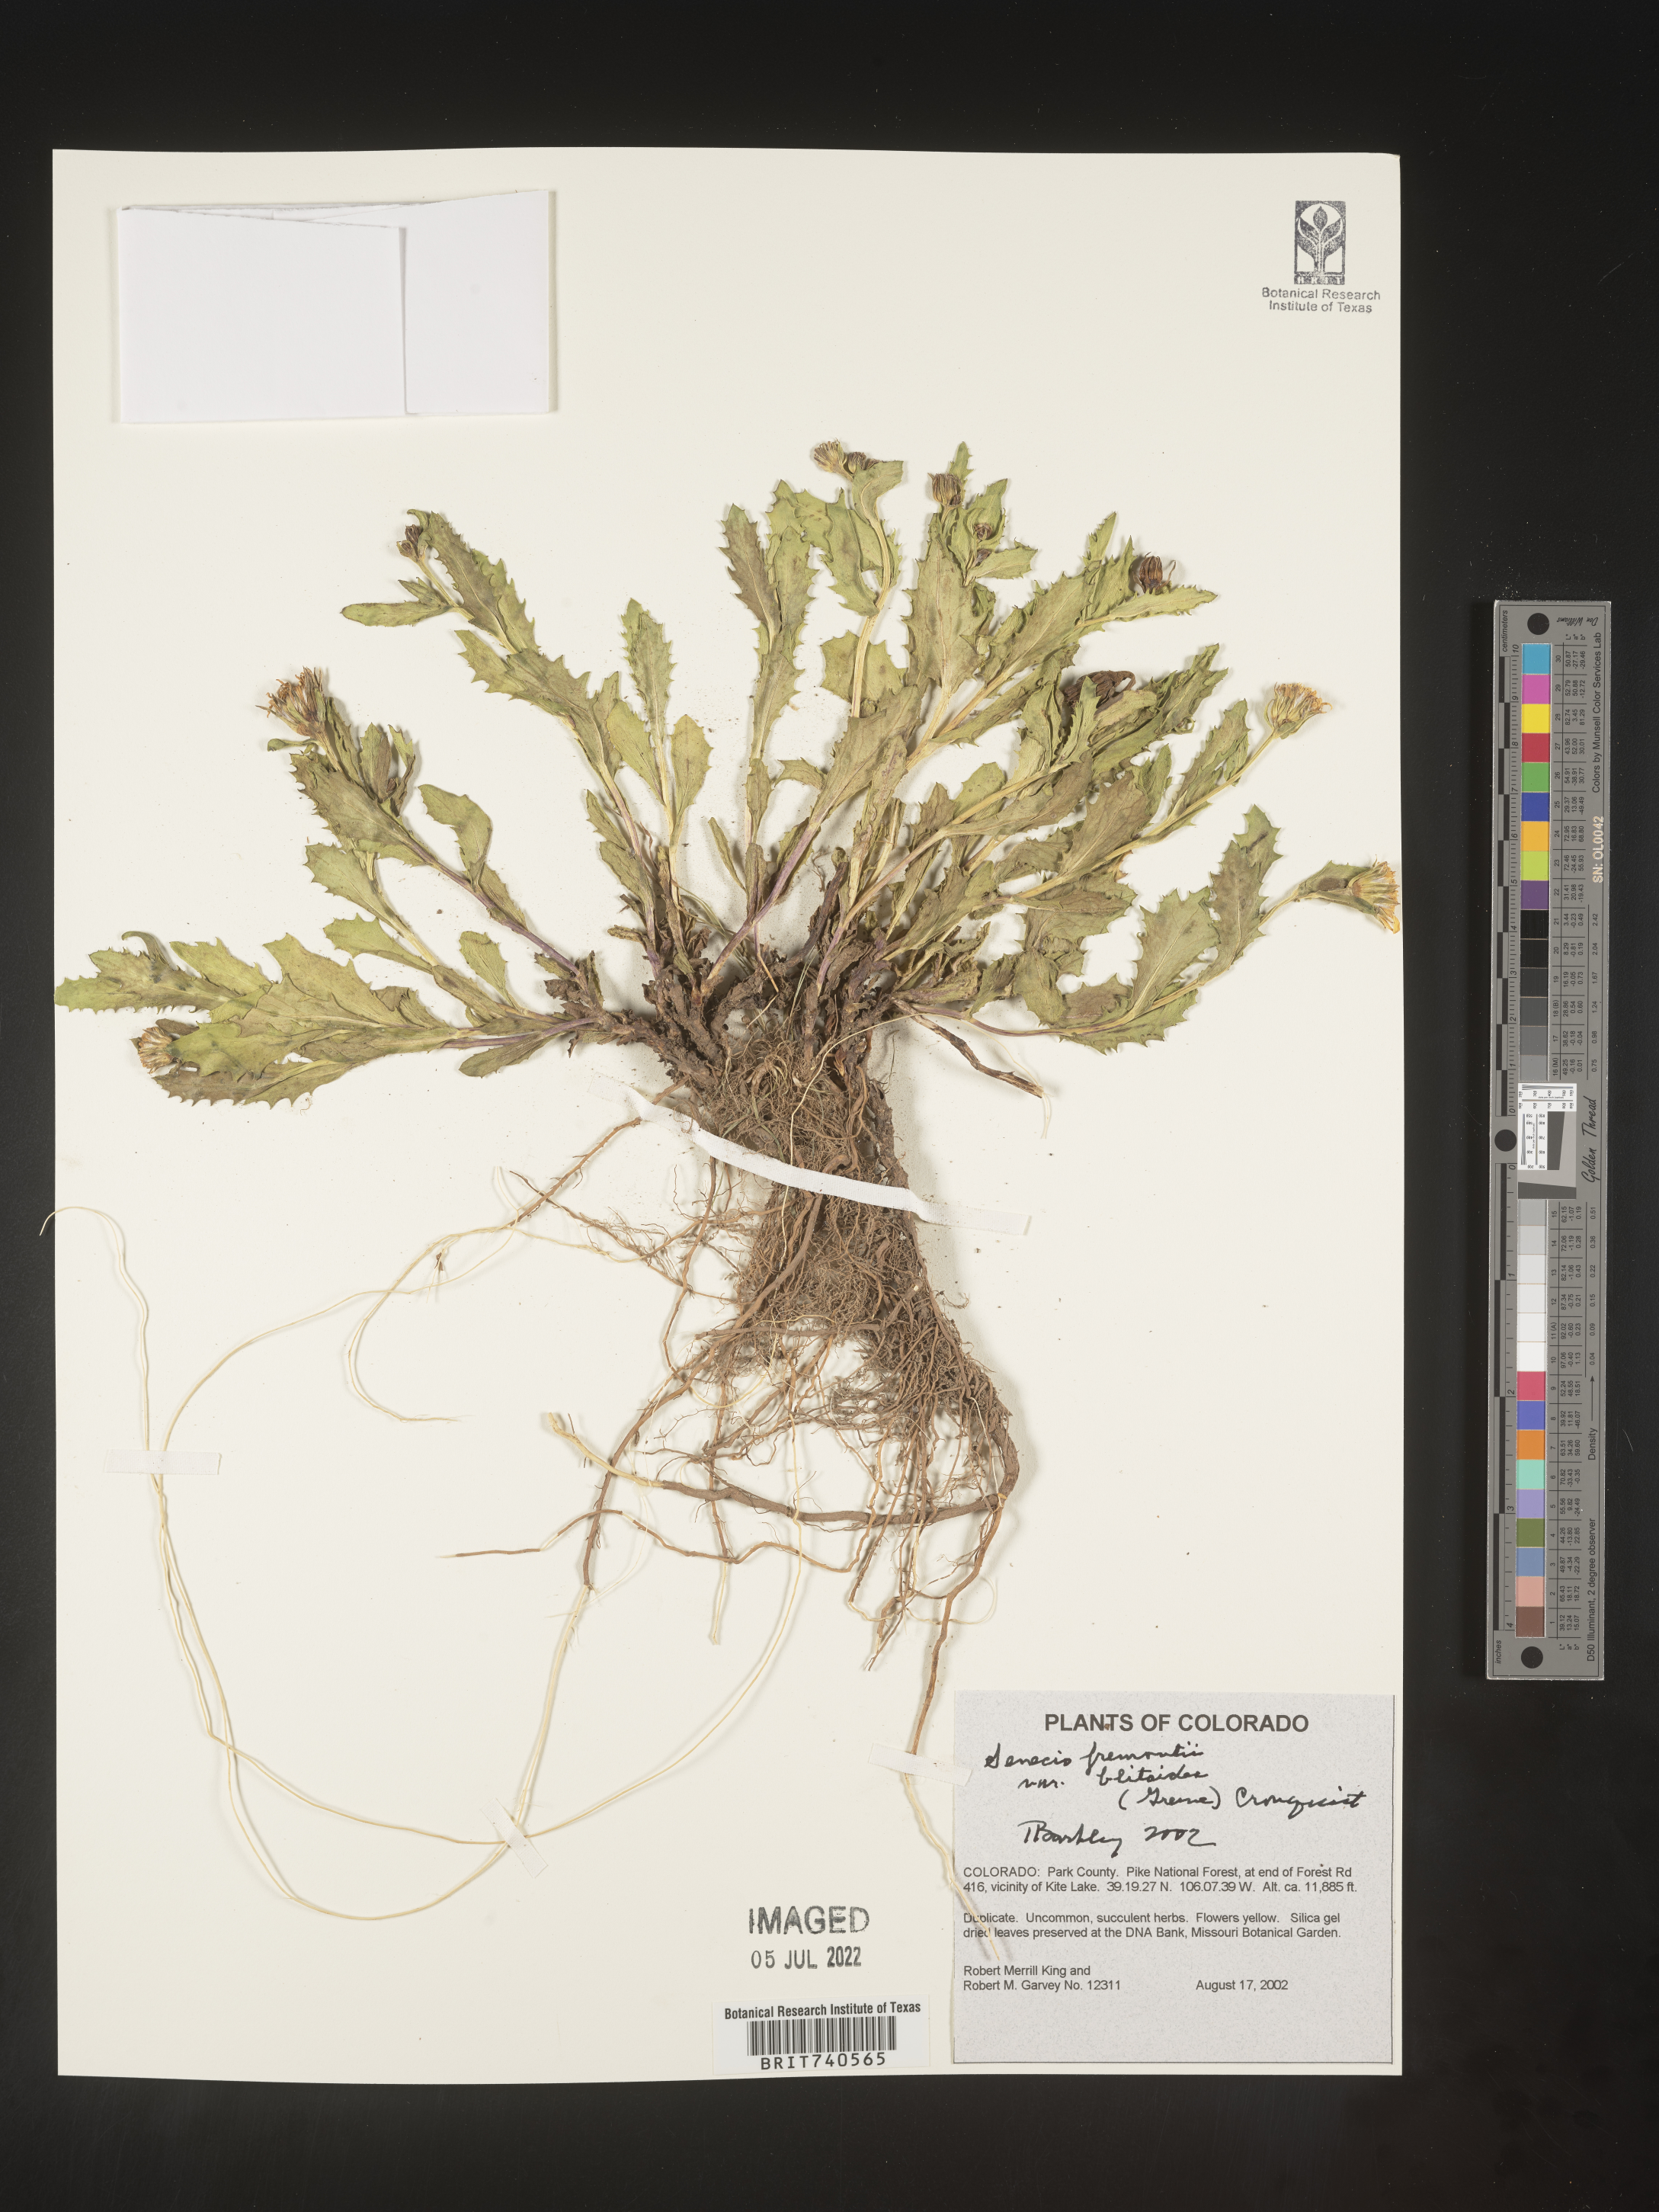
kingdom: Plantae
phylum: Tracheophyta
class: Magnoliopsida
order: Asterales
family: Asteraceae
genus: Senecio
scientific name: Senecio blitoides
